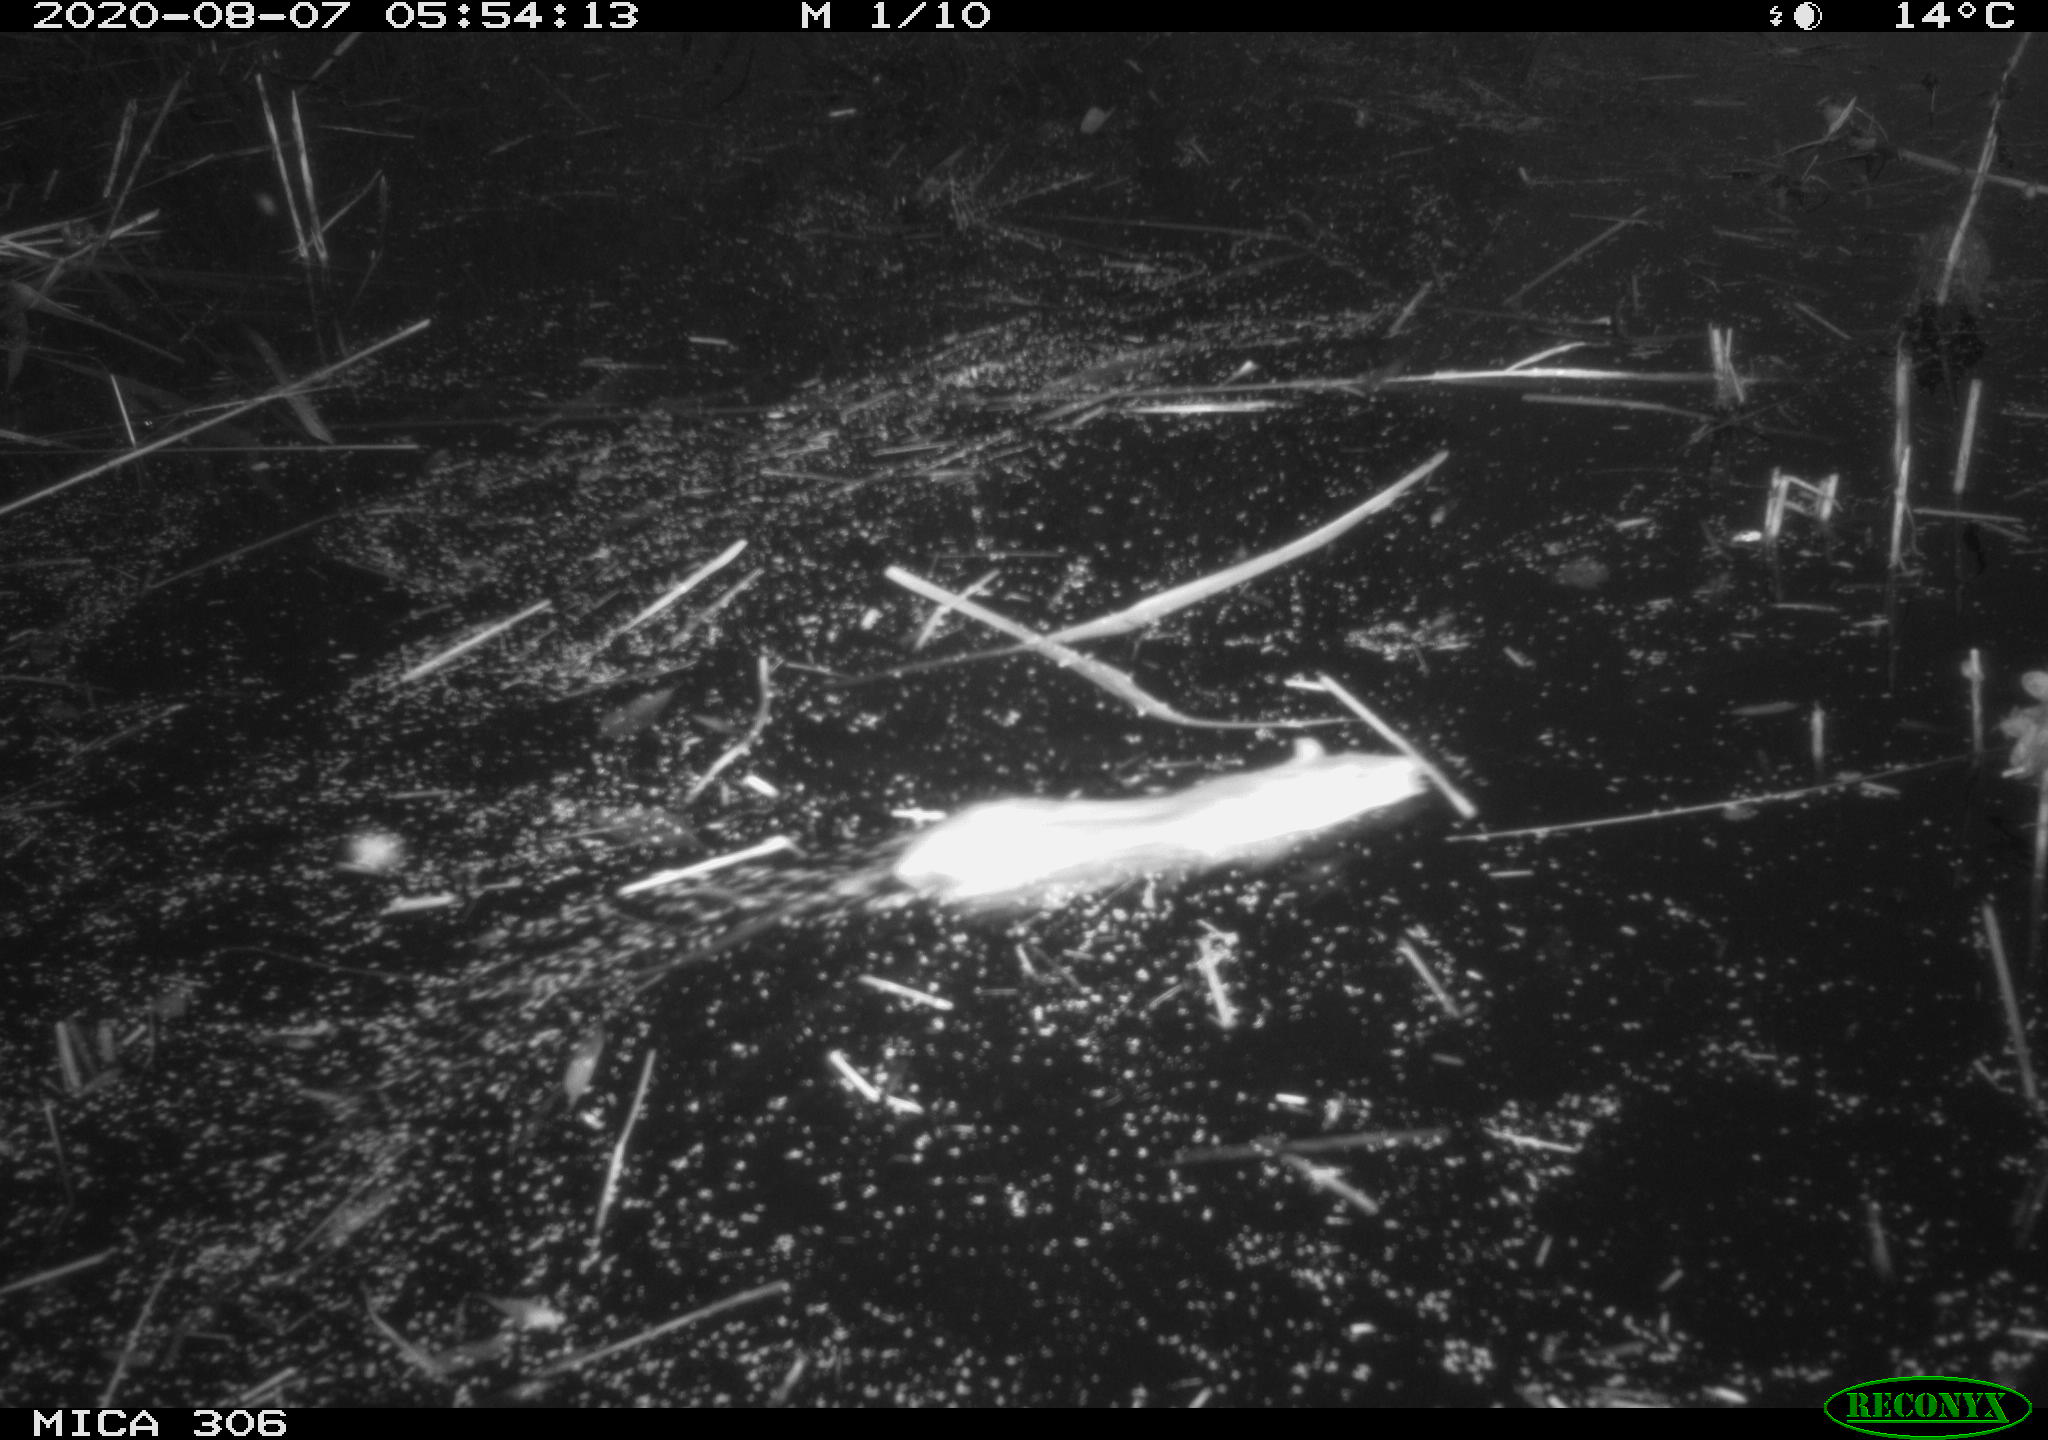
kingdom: Animalia
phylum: Chordata
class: Mammalia
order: Rodentia
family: Muridae
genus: Rattus
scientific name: Rattus norvegicus
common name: Brown rat
